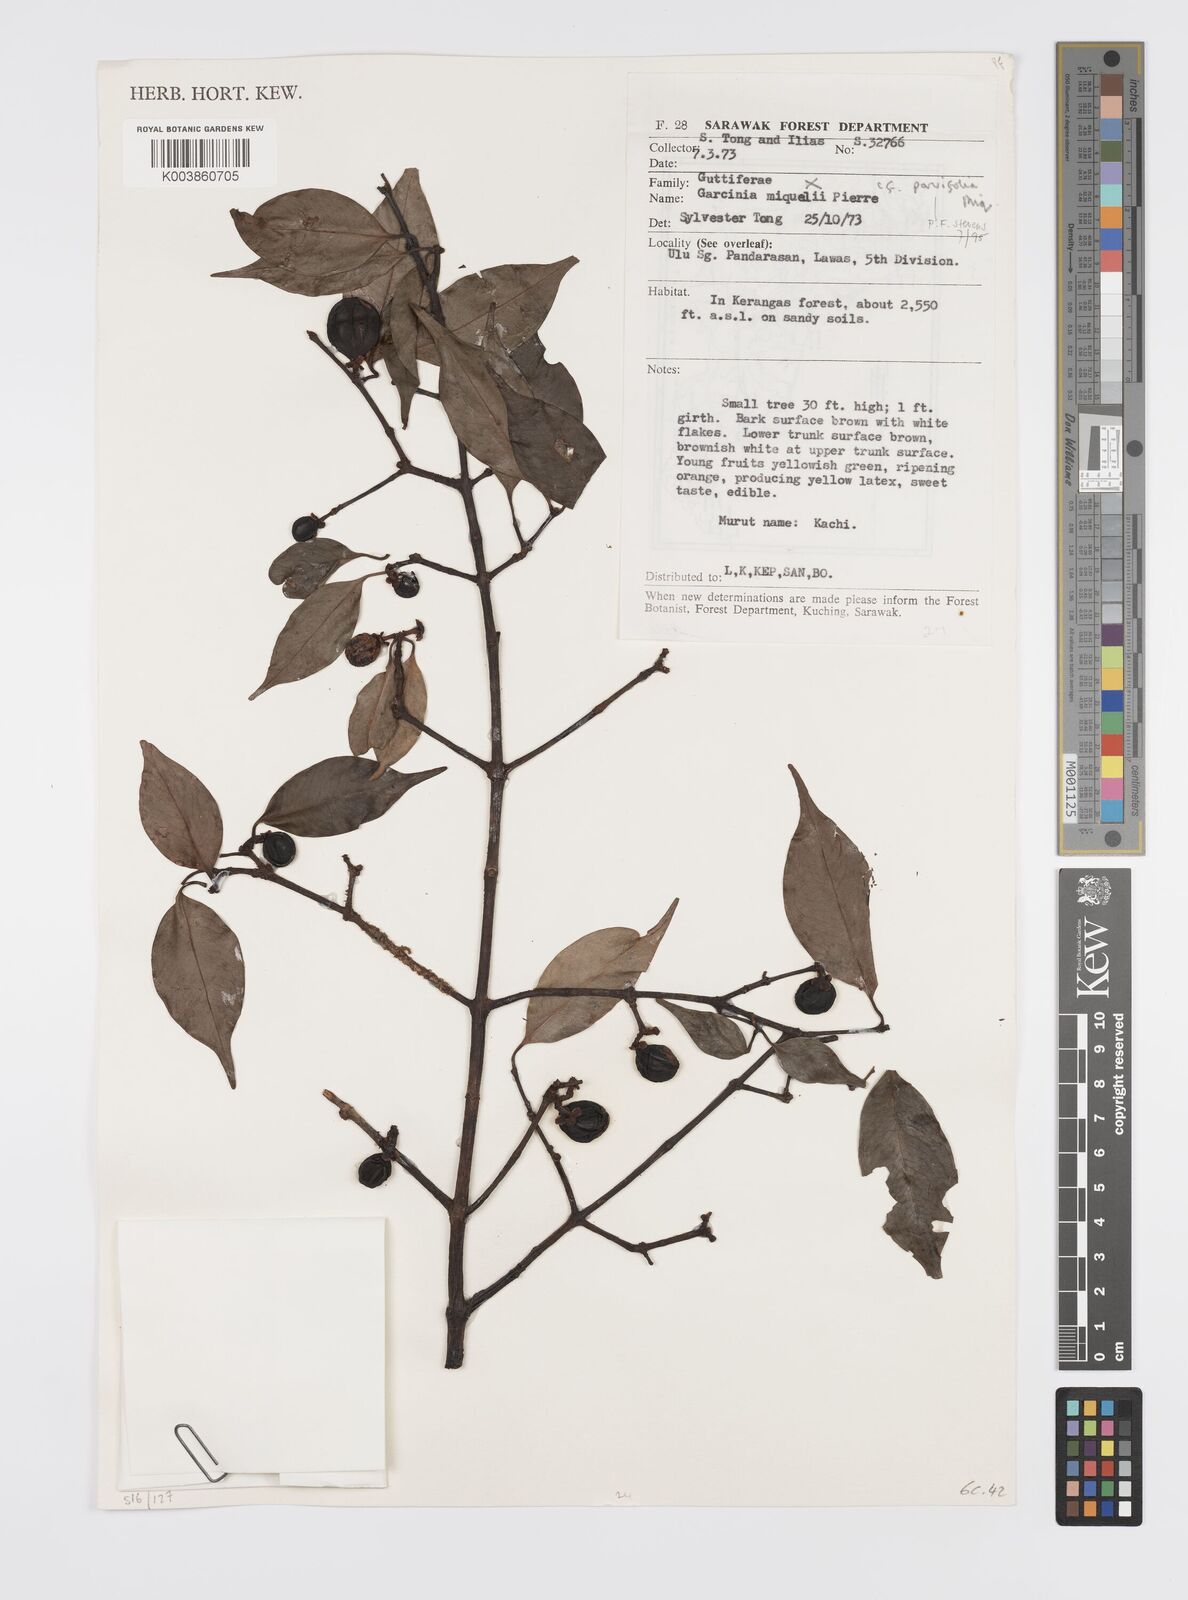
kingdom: Plantae
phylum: Tracheophyta
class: Magnoliopsida
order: Malpighiales
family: Clusiaceae
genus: Garcinia
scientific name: Garcinia parvifolia
